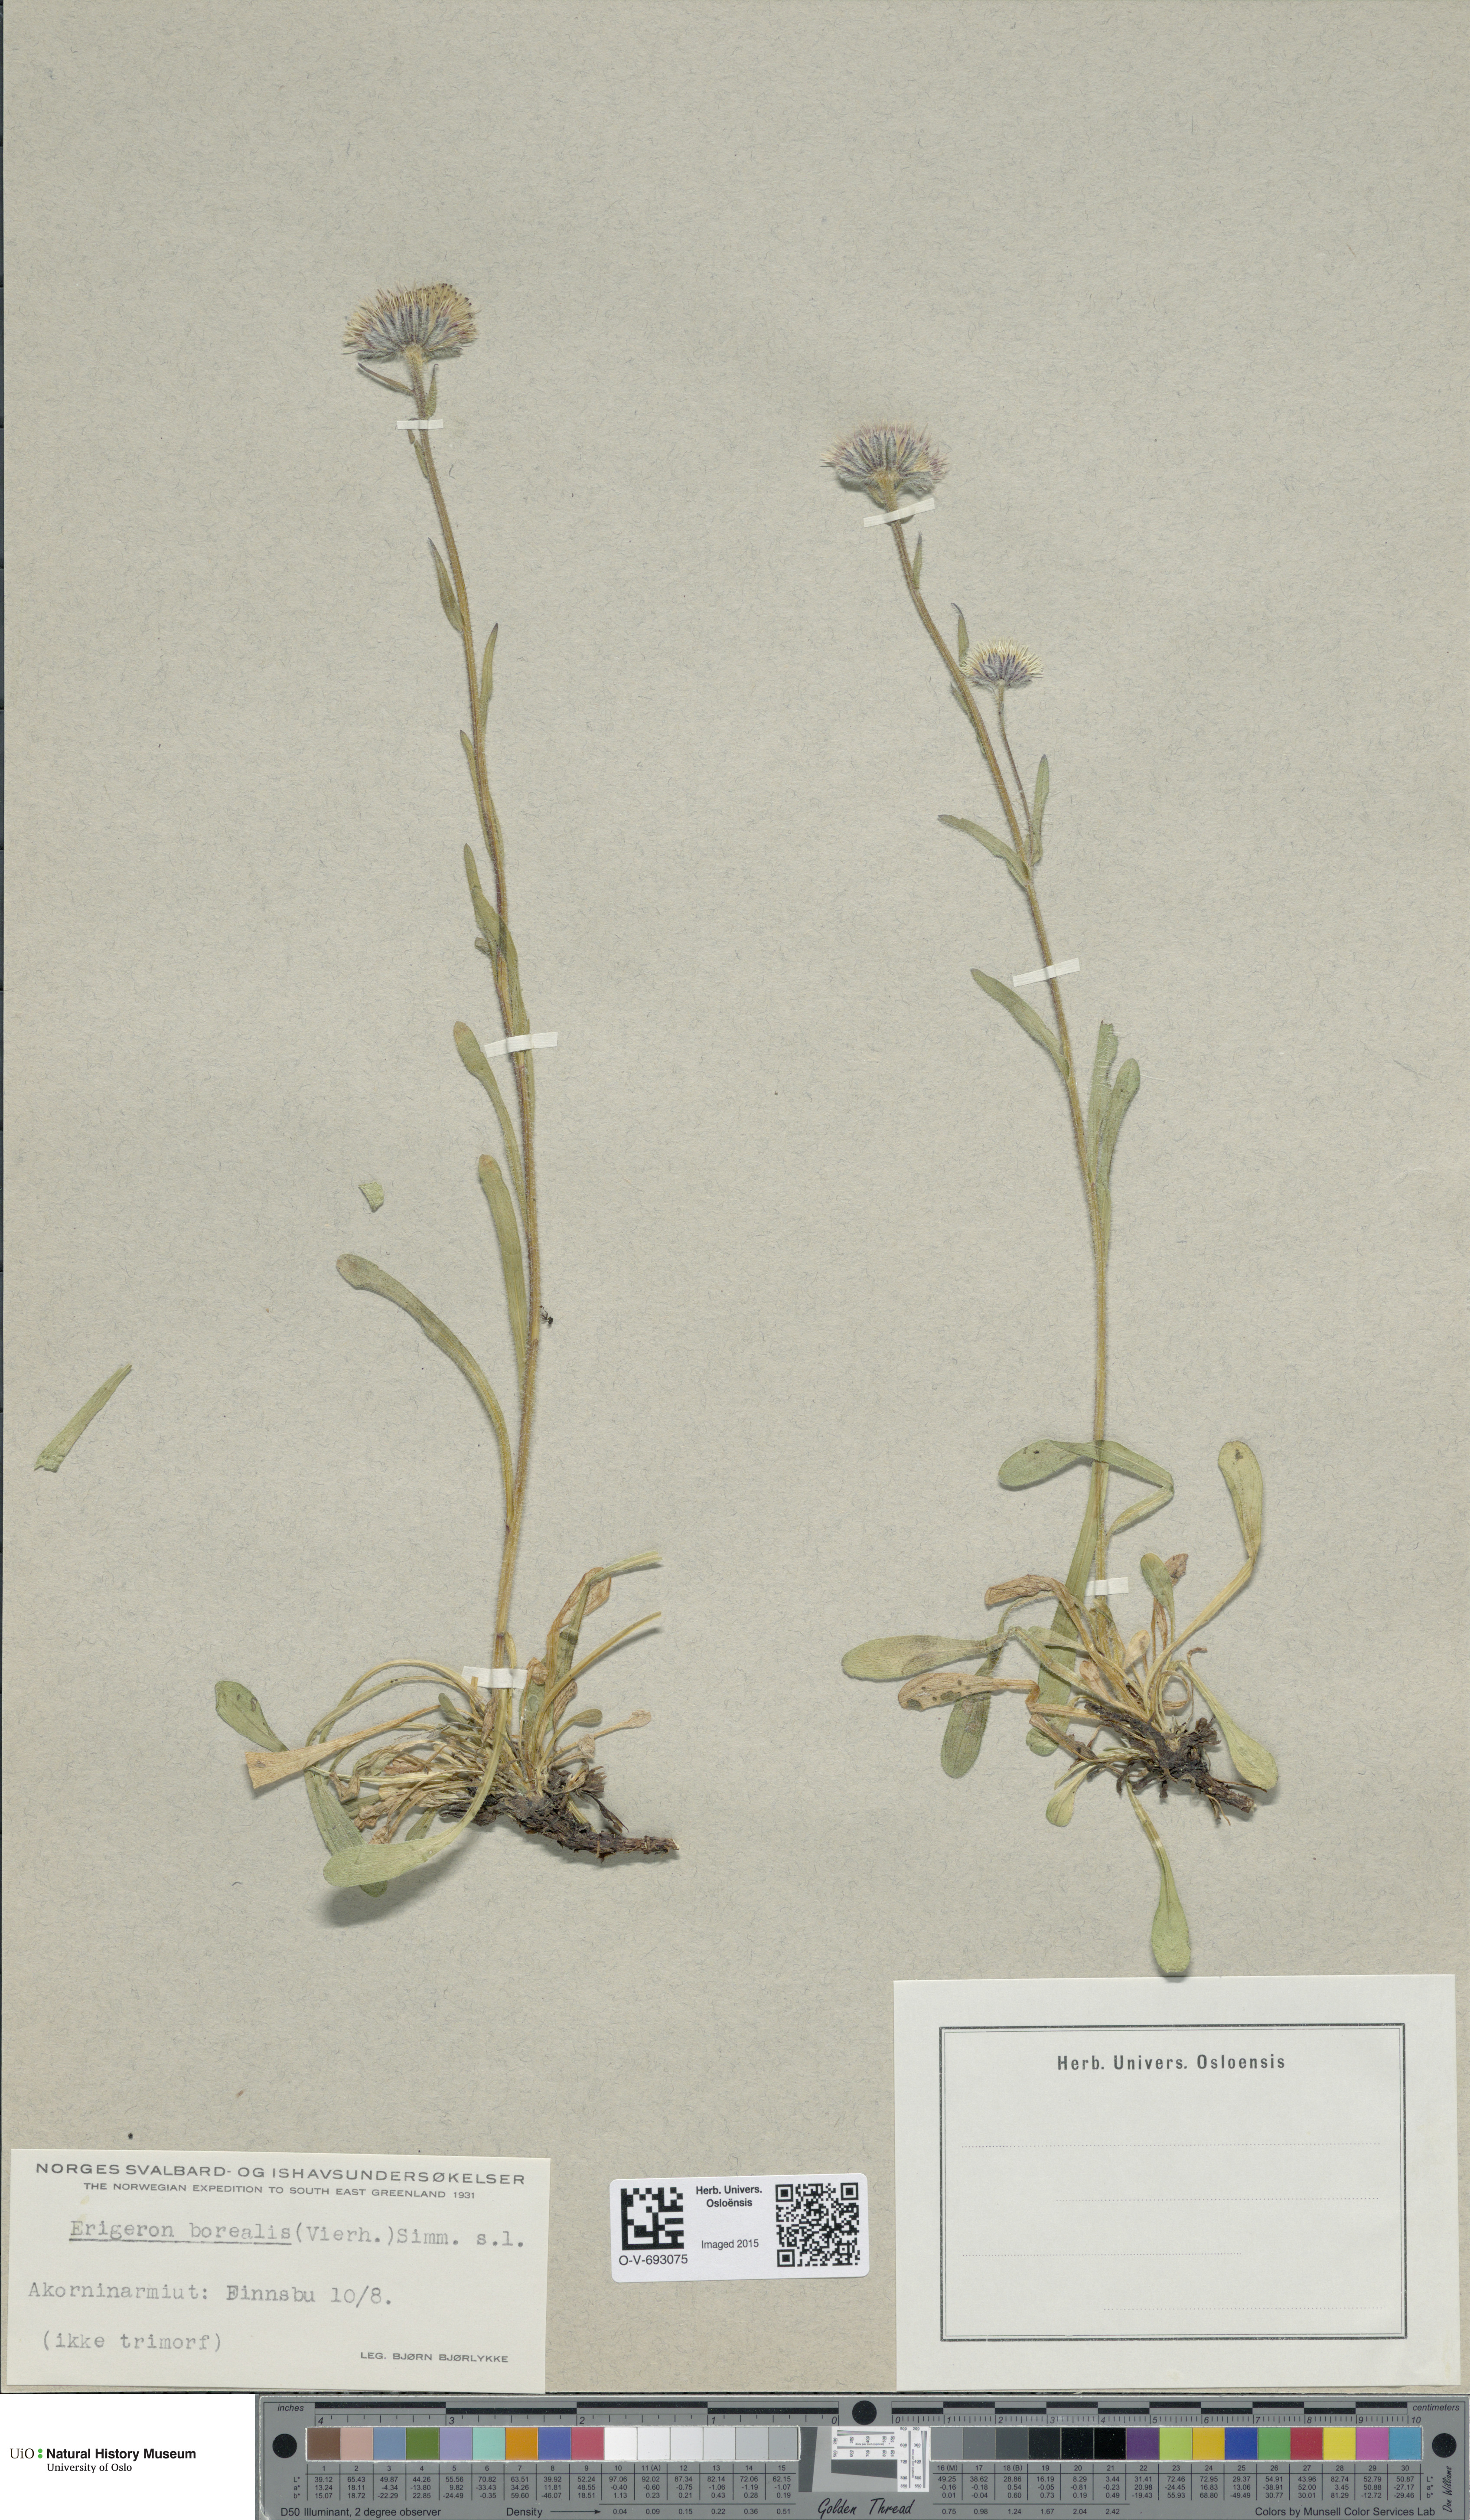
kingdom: Plantae
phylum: Tracheophyta
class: Magnoliopsida
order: Asterales
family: Asteraceae
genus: Erigeron
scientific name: Erigeron borealis
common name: Alpine fleabane
